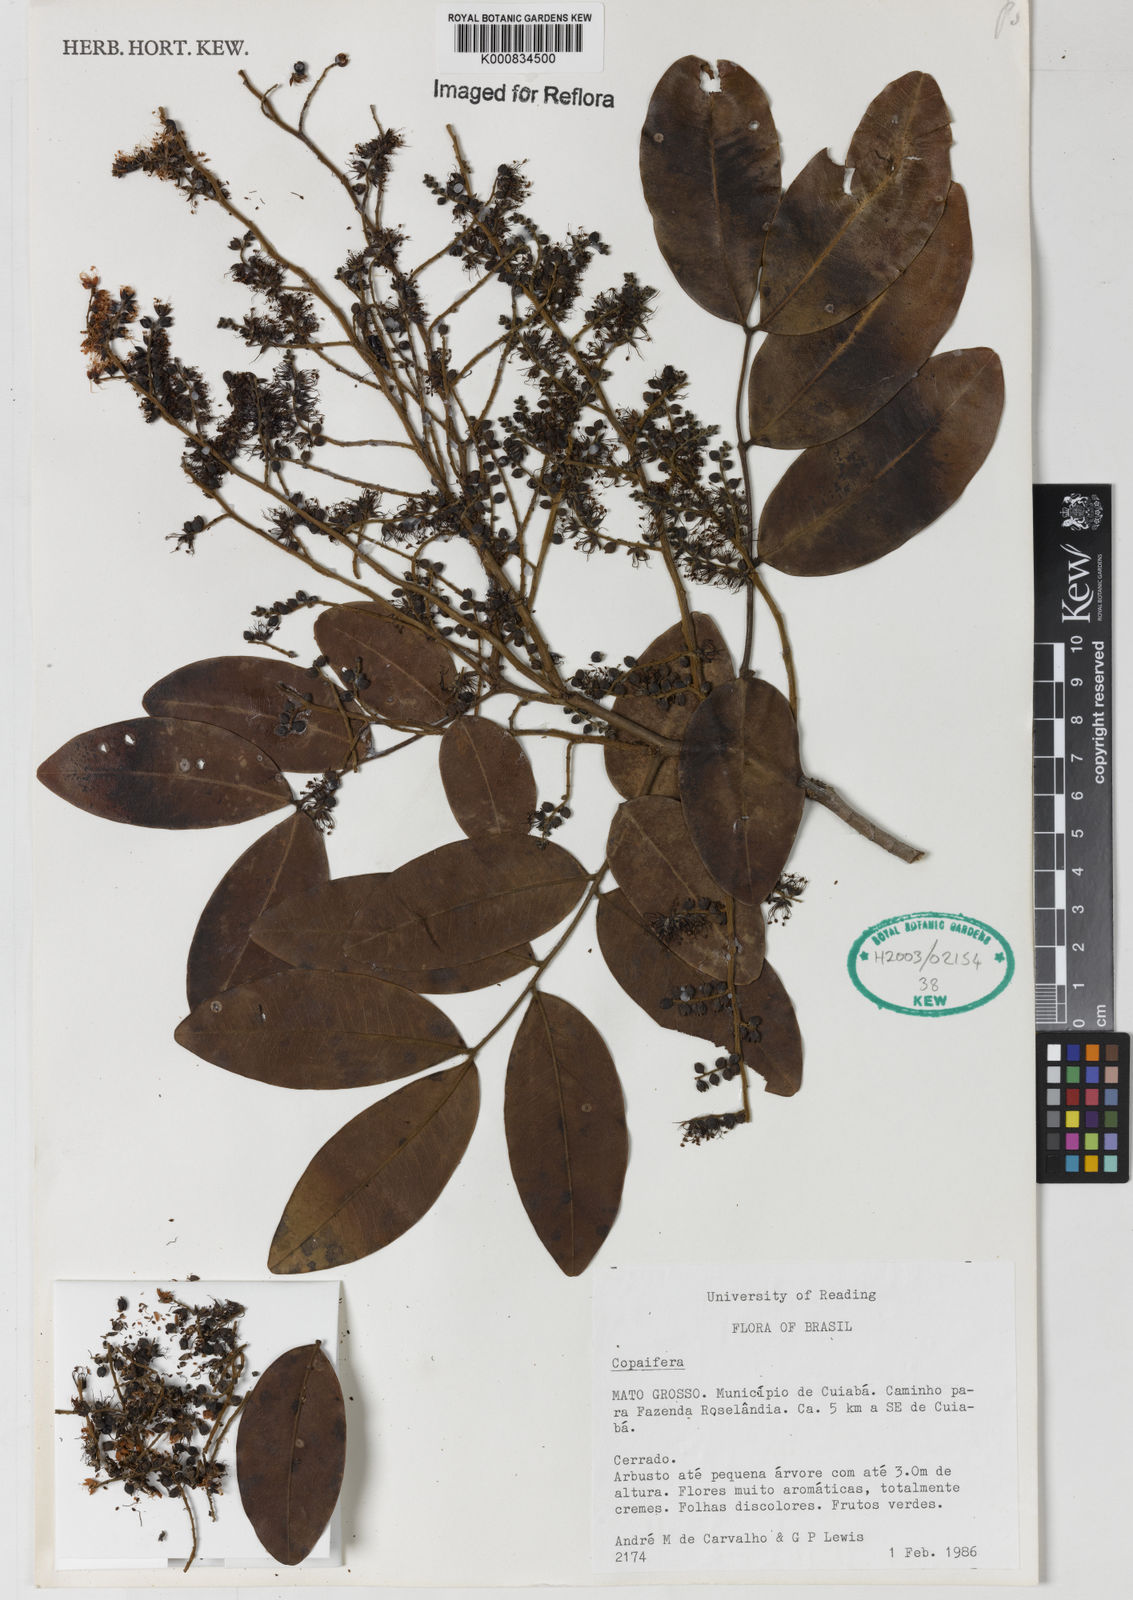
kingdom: Plantae
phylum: Tracheophyta
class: Magnoliopsida
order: Fabales
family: Fabaceae
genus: Copaifera
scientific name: Copaifera
